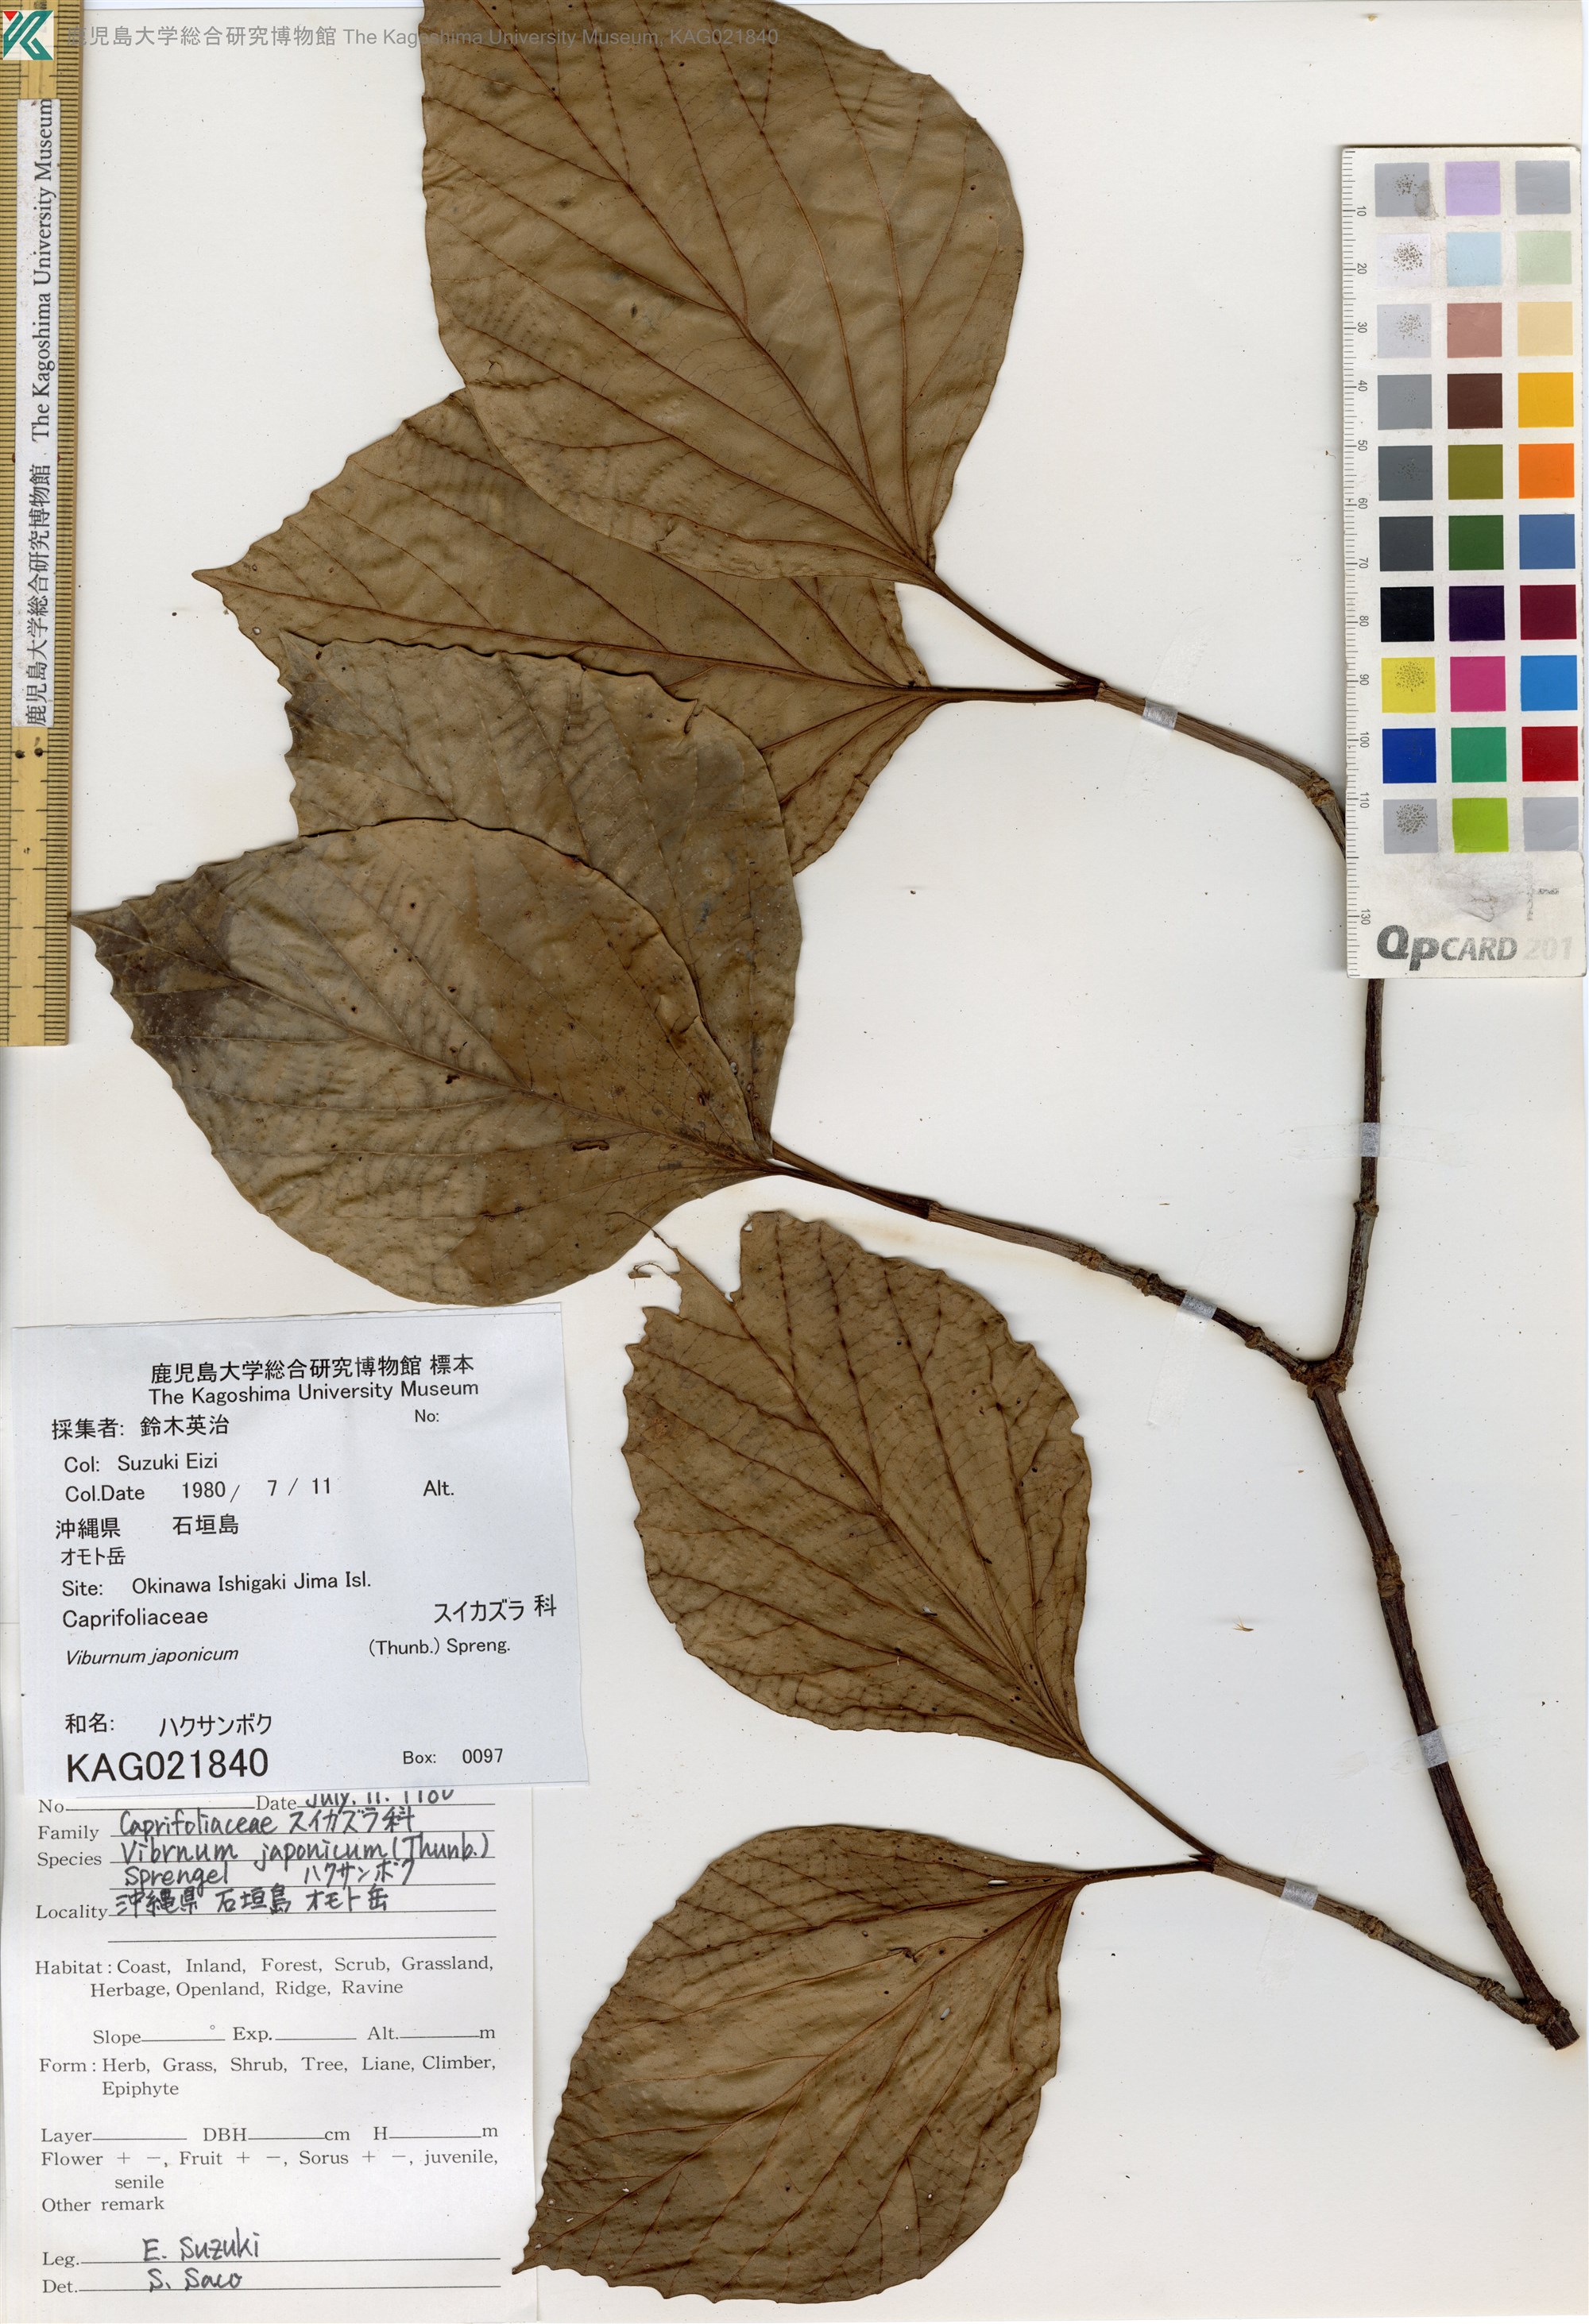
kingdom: Plantae
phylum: Tracheophyta
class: Magnoliopsida
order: Dipsacales
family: Viburnaceae
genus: Viburnum
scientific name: Viburnum japonicum
